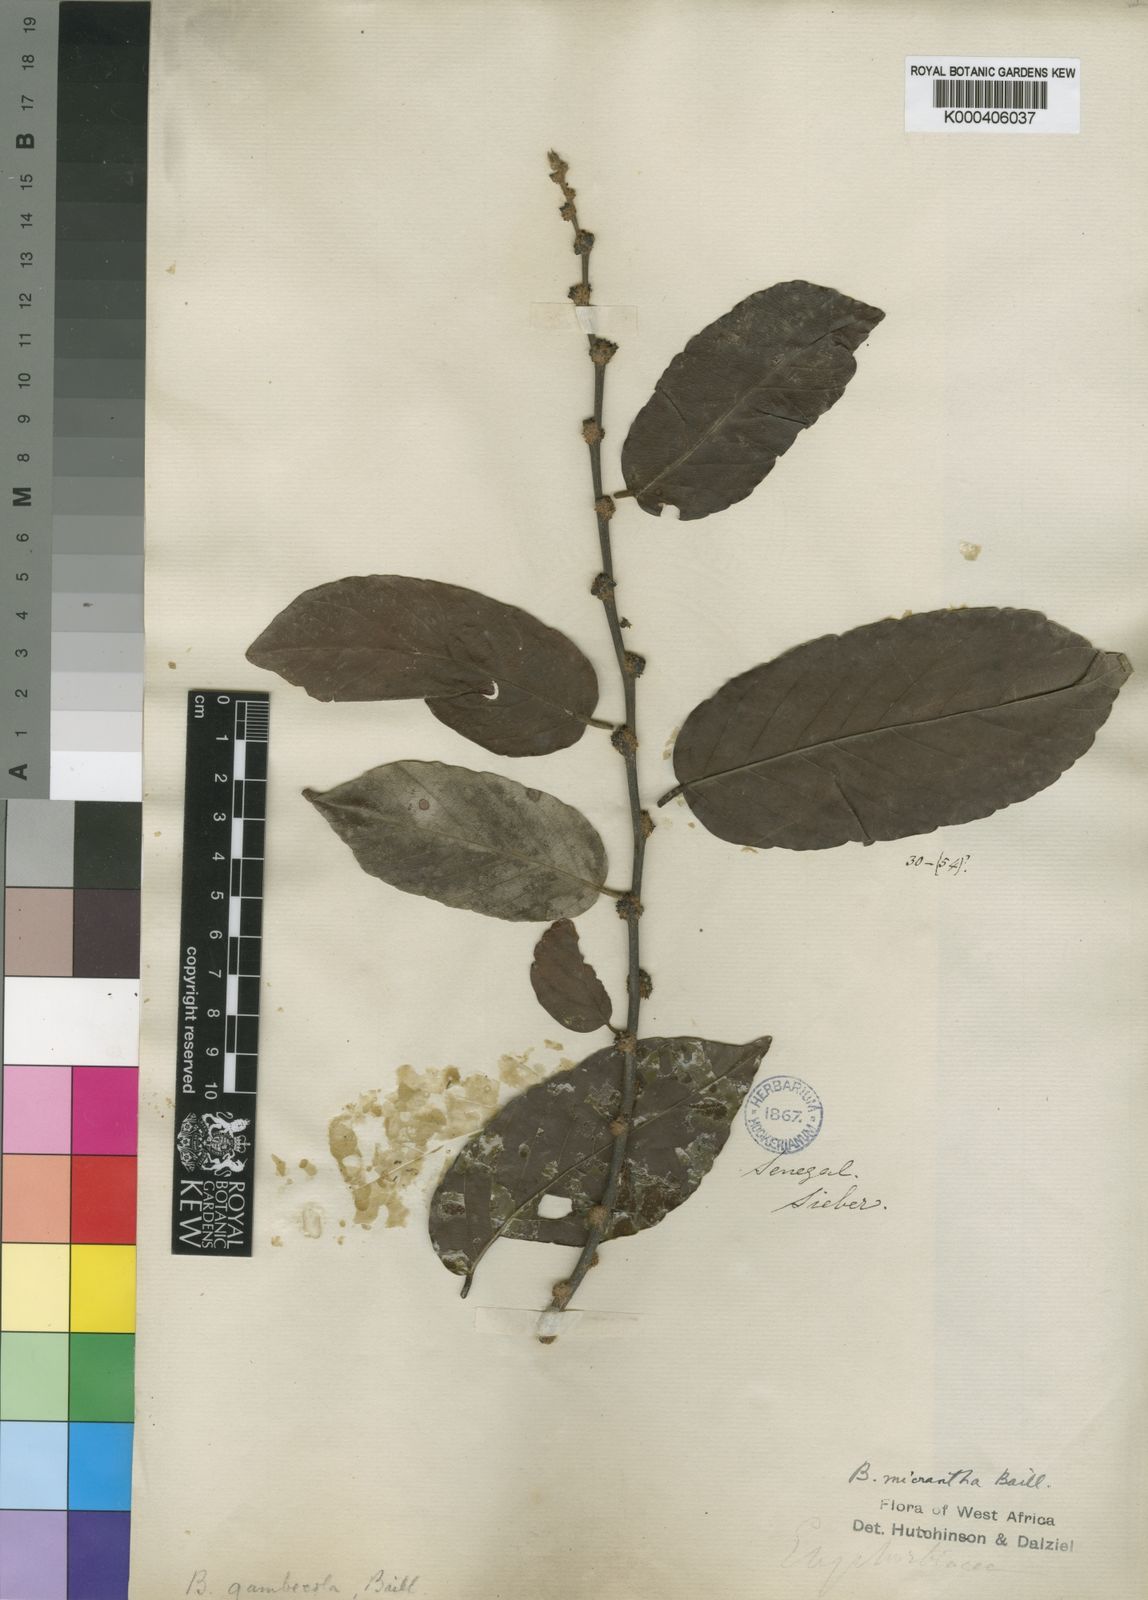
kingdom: Plantae
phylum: Tracheophyta
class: Magnoliopsida
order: Malpighiales
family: Phyllanthaceae
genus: Bridelia
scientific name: Bridelia micrantha
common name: Bridelia
